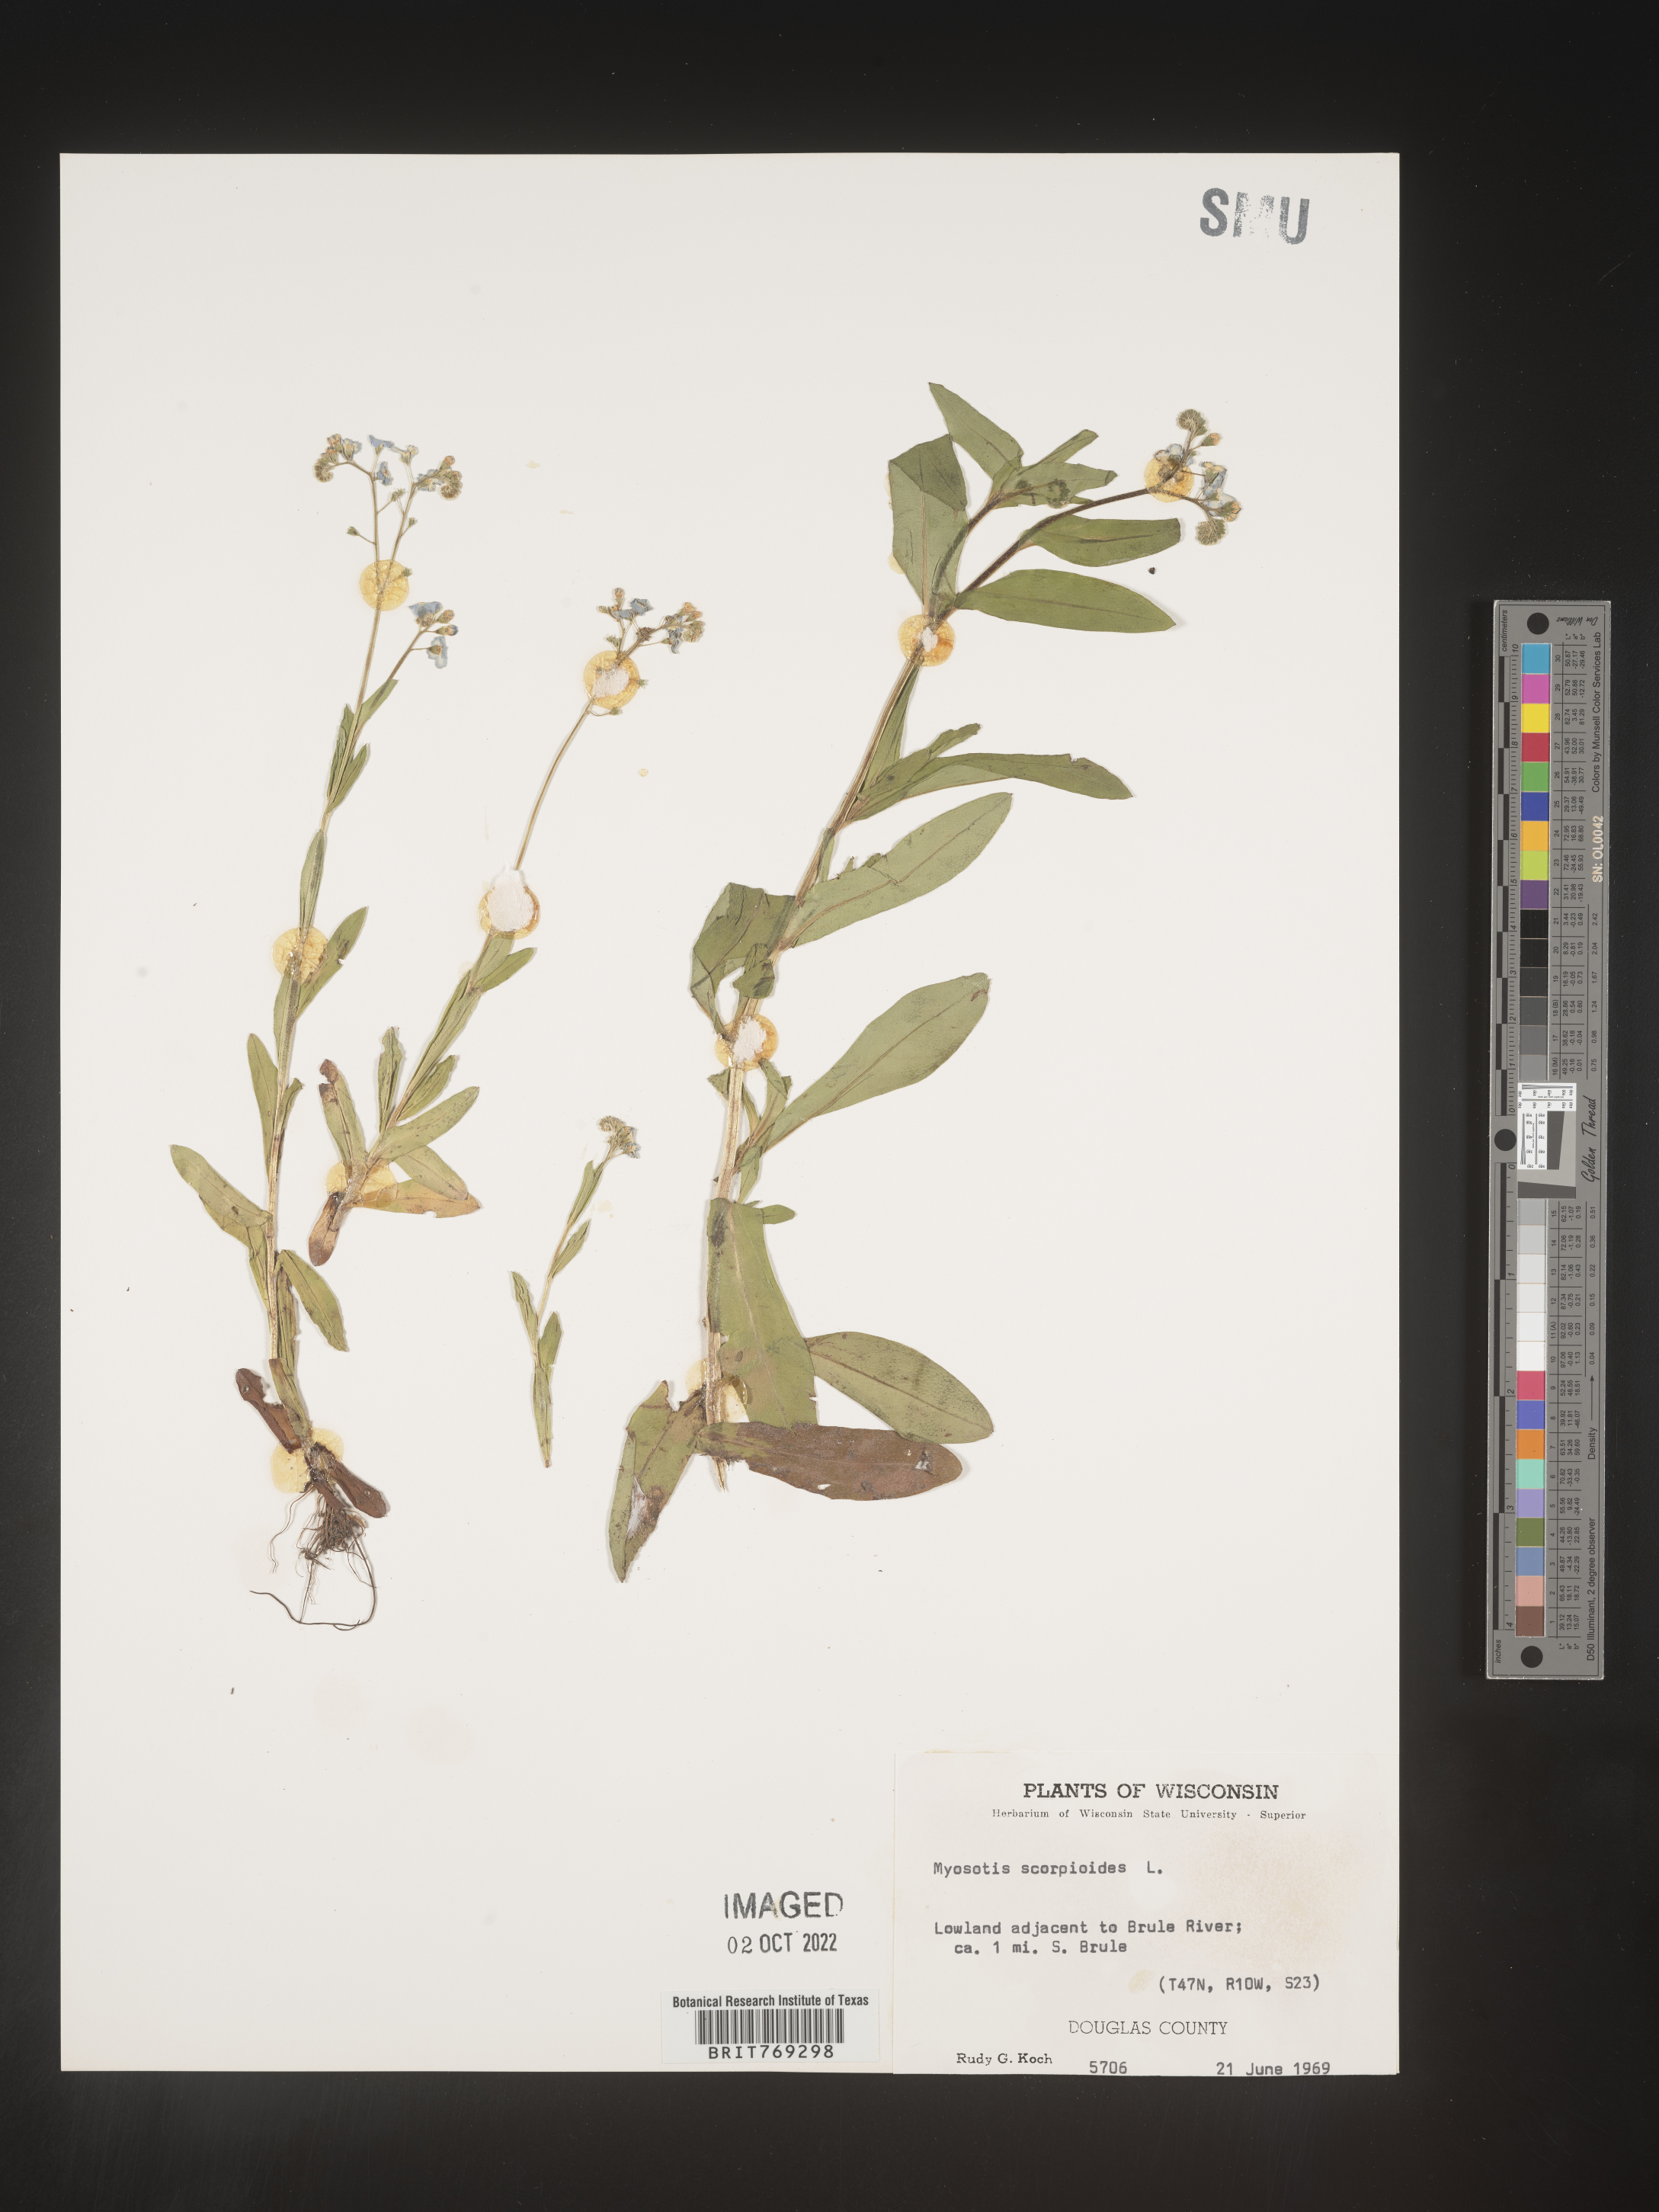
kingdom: Plantae
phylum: Tracheophyta
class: Magnoliopsida
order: Boraginales
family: Boraginaceae
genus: Myosotis
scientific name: Myosotis scorpioides
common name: Water forget-me-not
